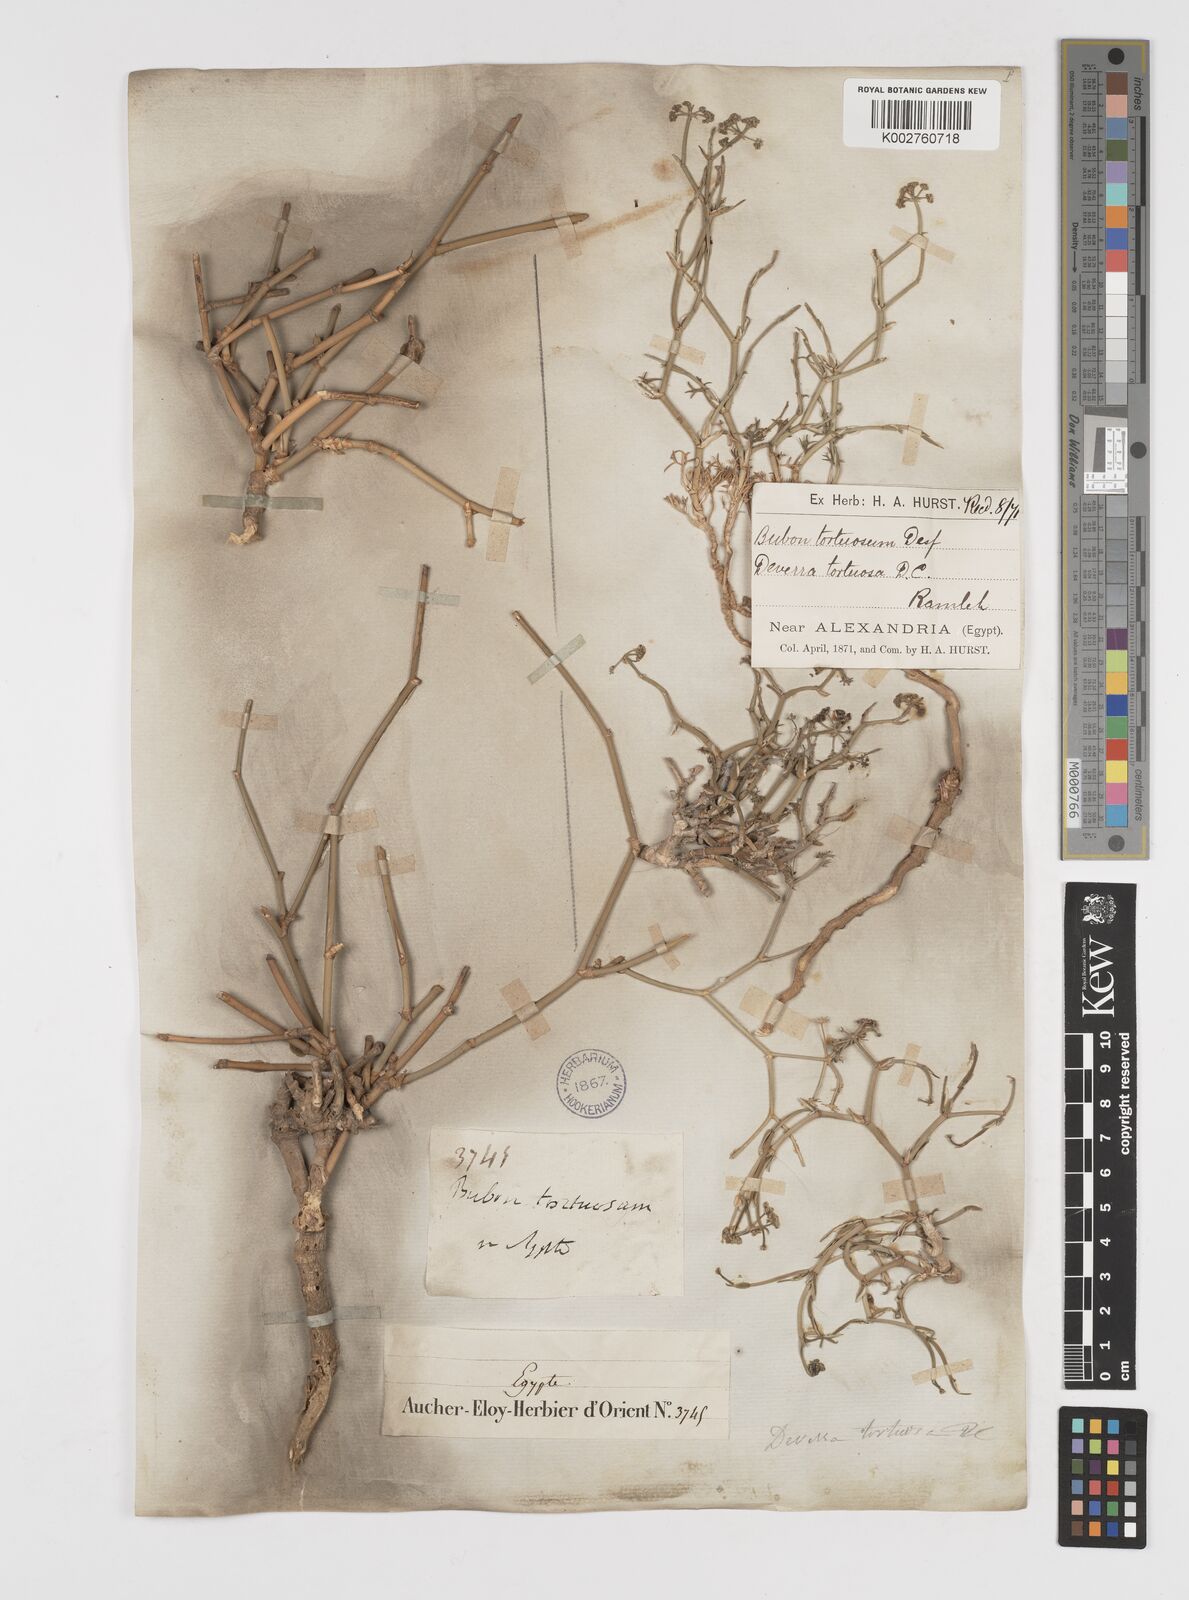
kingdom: Plantae
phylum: Tracheophyta
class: Magnoliopsida
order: Apiales
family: Apiaceae
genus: Deverra
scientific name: Deverra tortuosa
